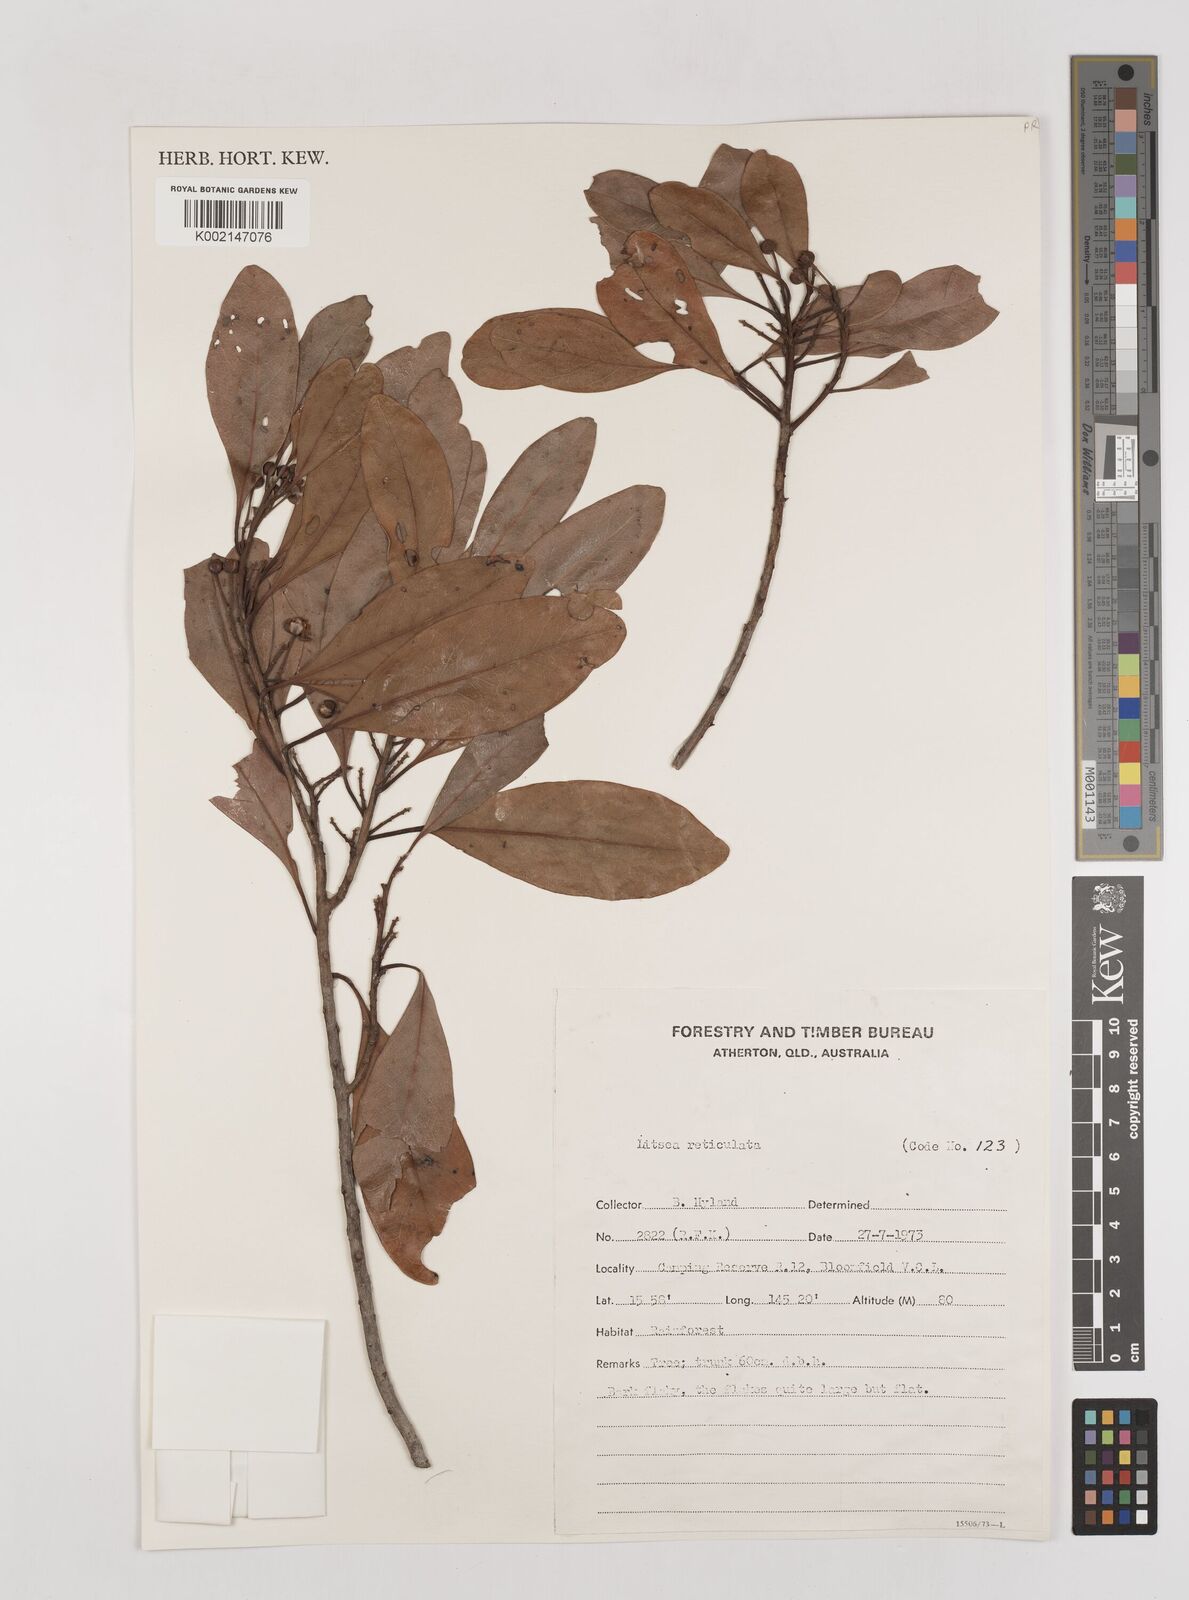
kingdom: Plantae
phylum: Tracheophyta
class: Magnoliopsida
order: Laurales
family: Lauraceae
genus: Litsea
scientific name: Litsea reticulata
